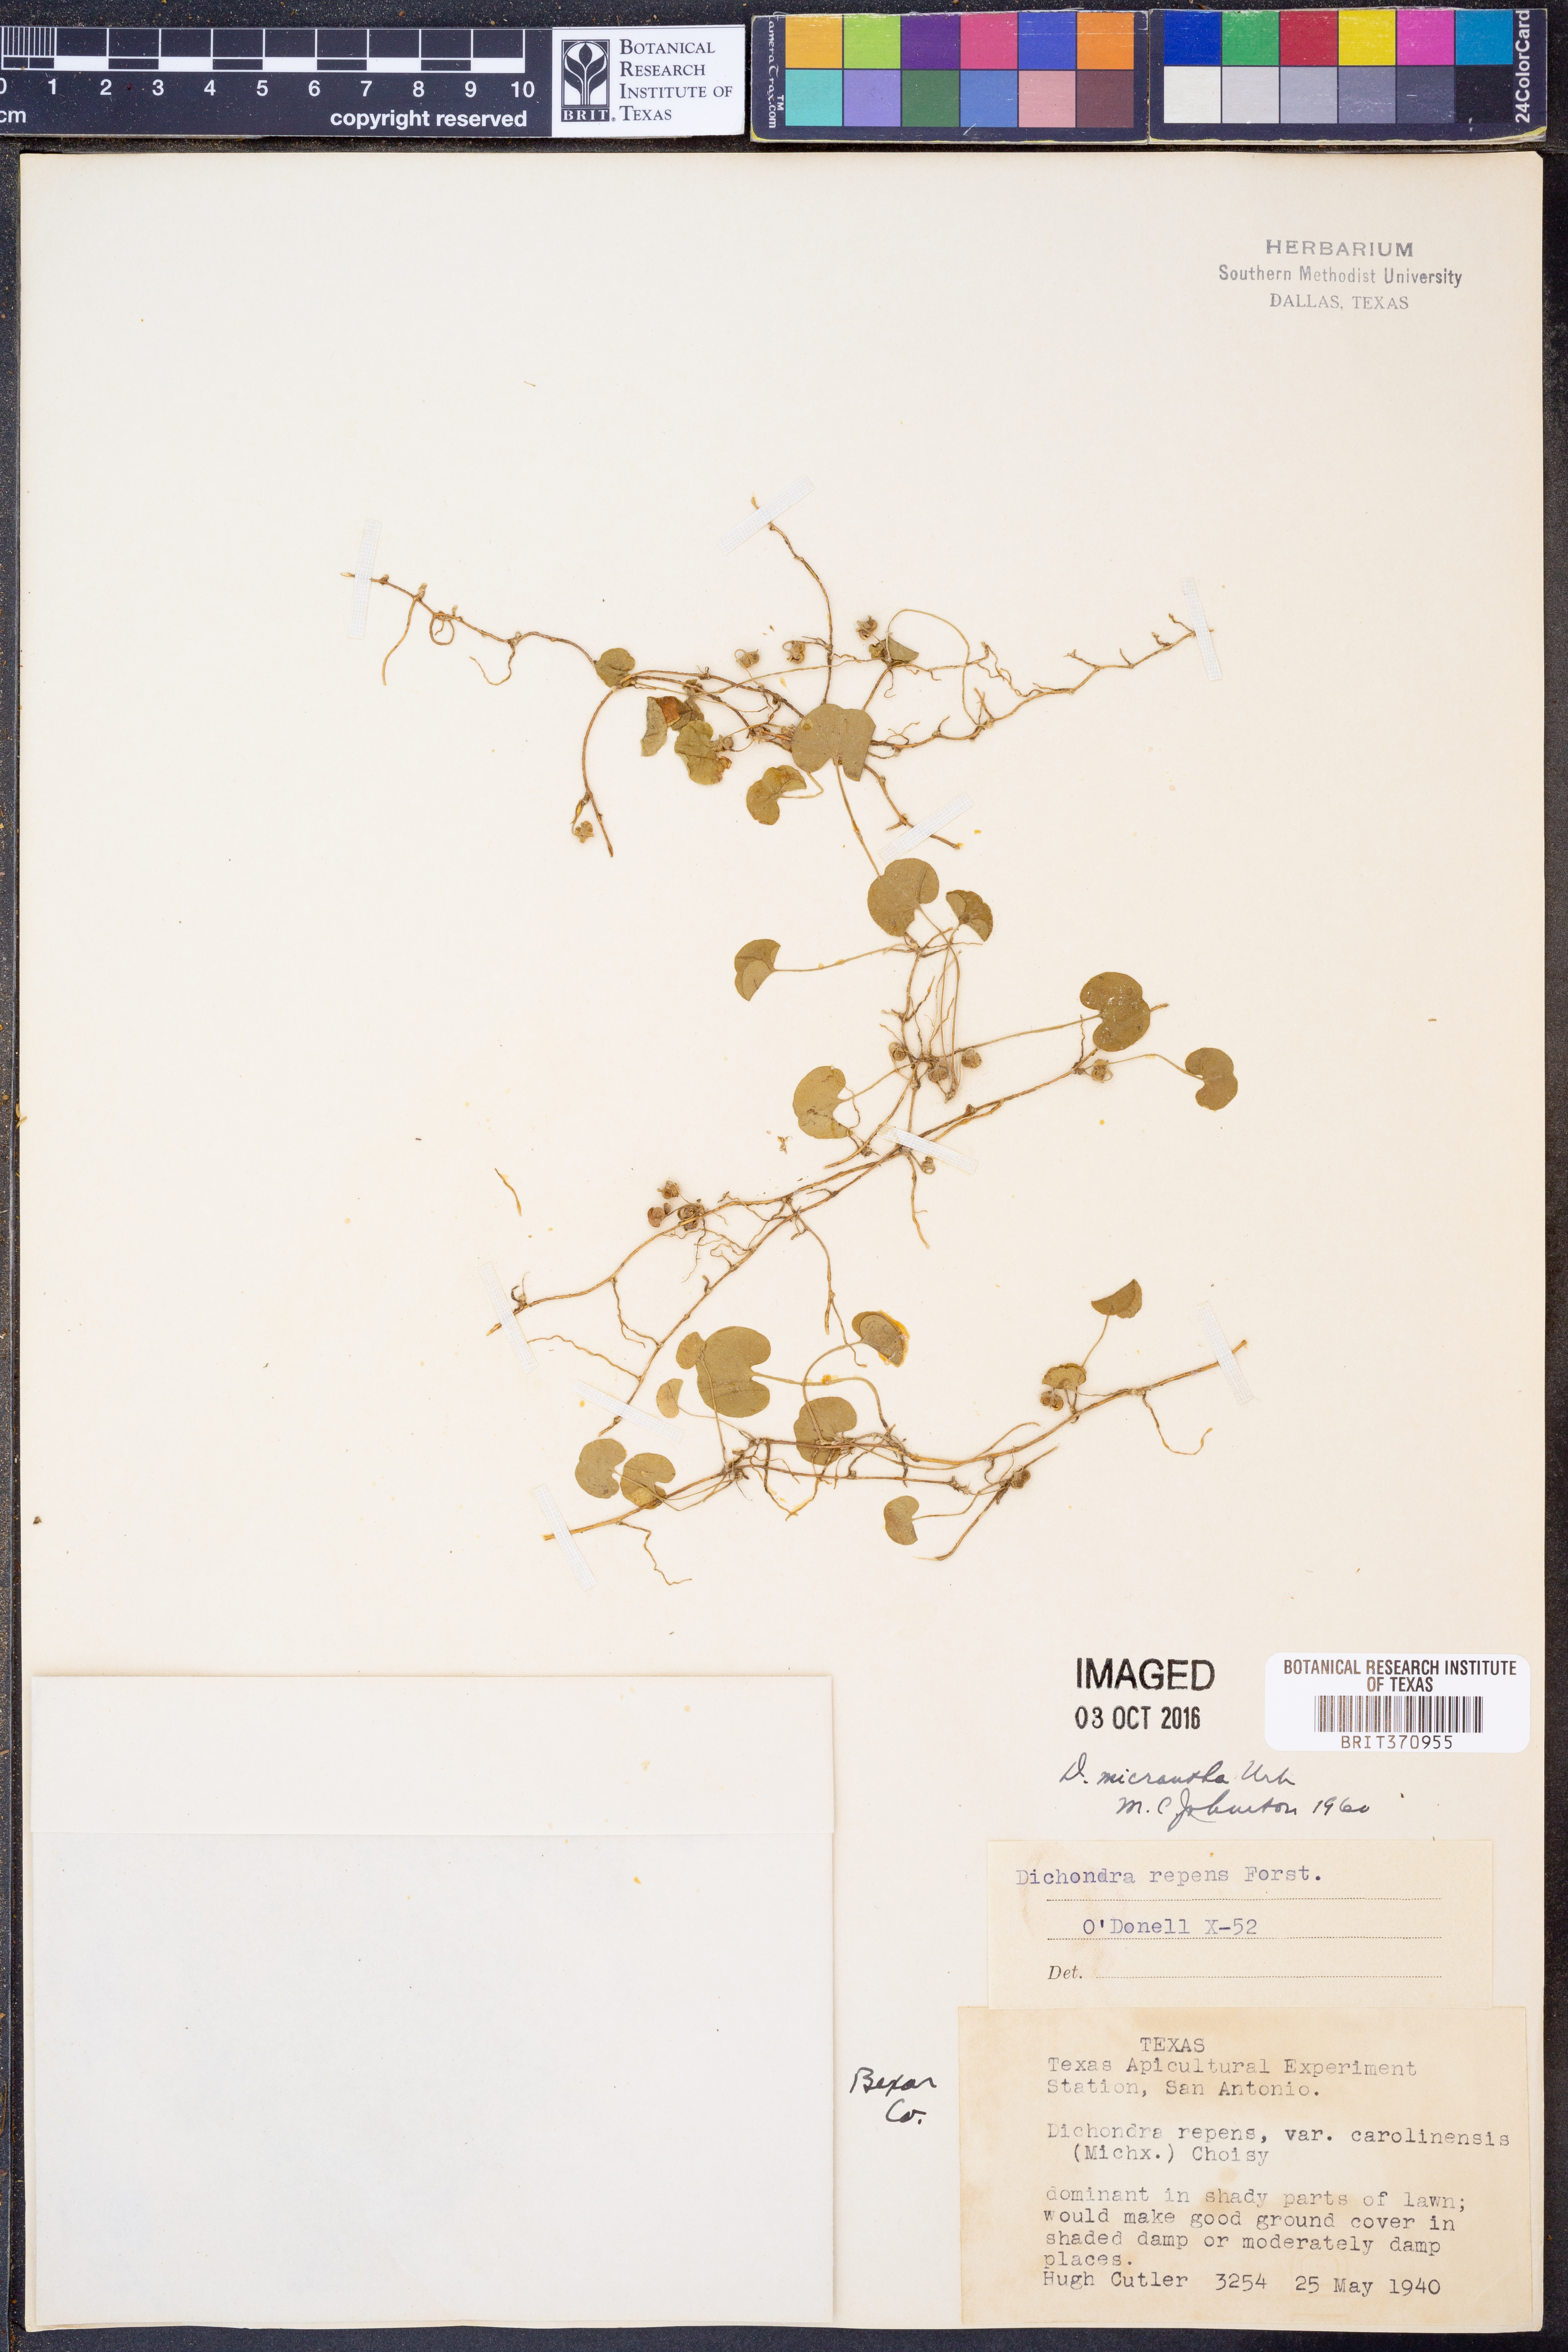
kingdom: Plantae
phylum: Tracheophyta
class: Magnoliopsida
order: Solanales
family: Convolvulaceae
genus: Dichondra
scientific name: Dichondra micrantha
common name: Kidneyweed
